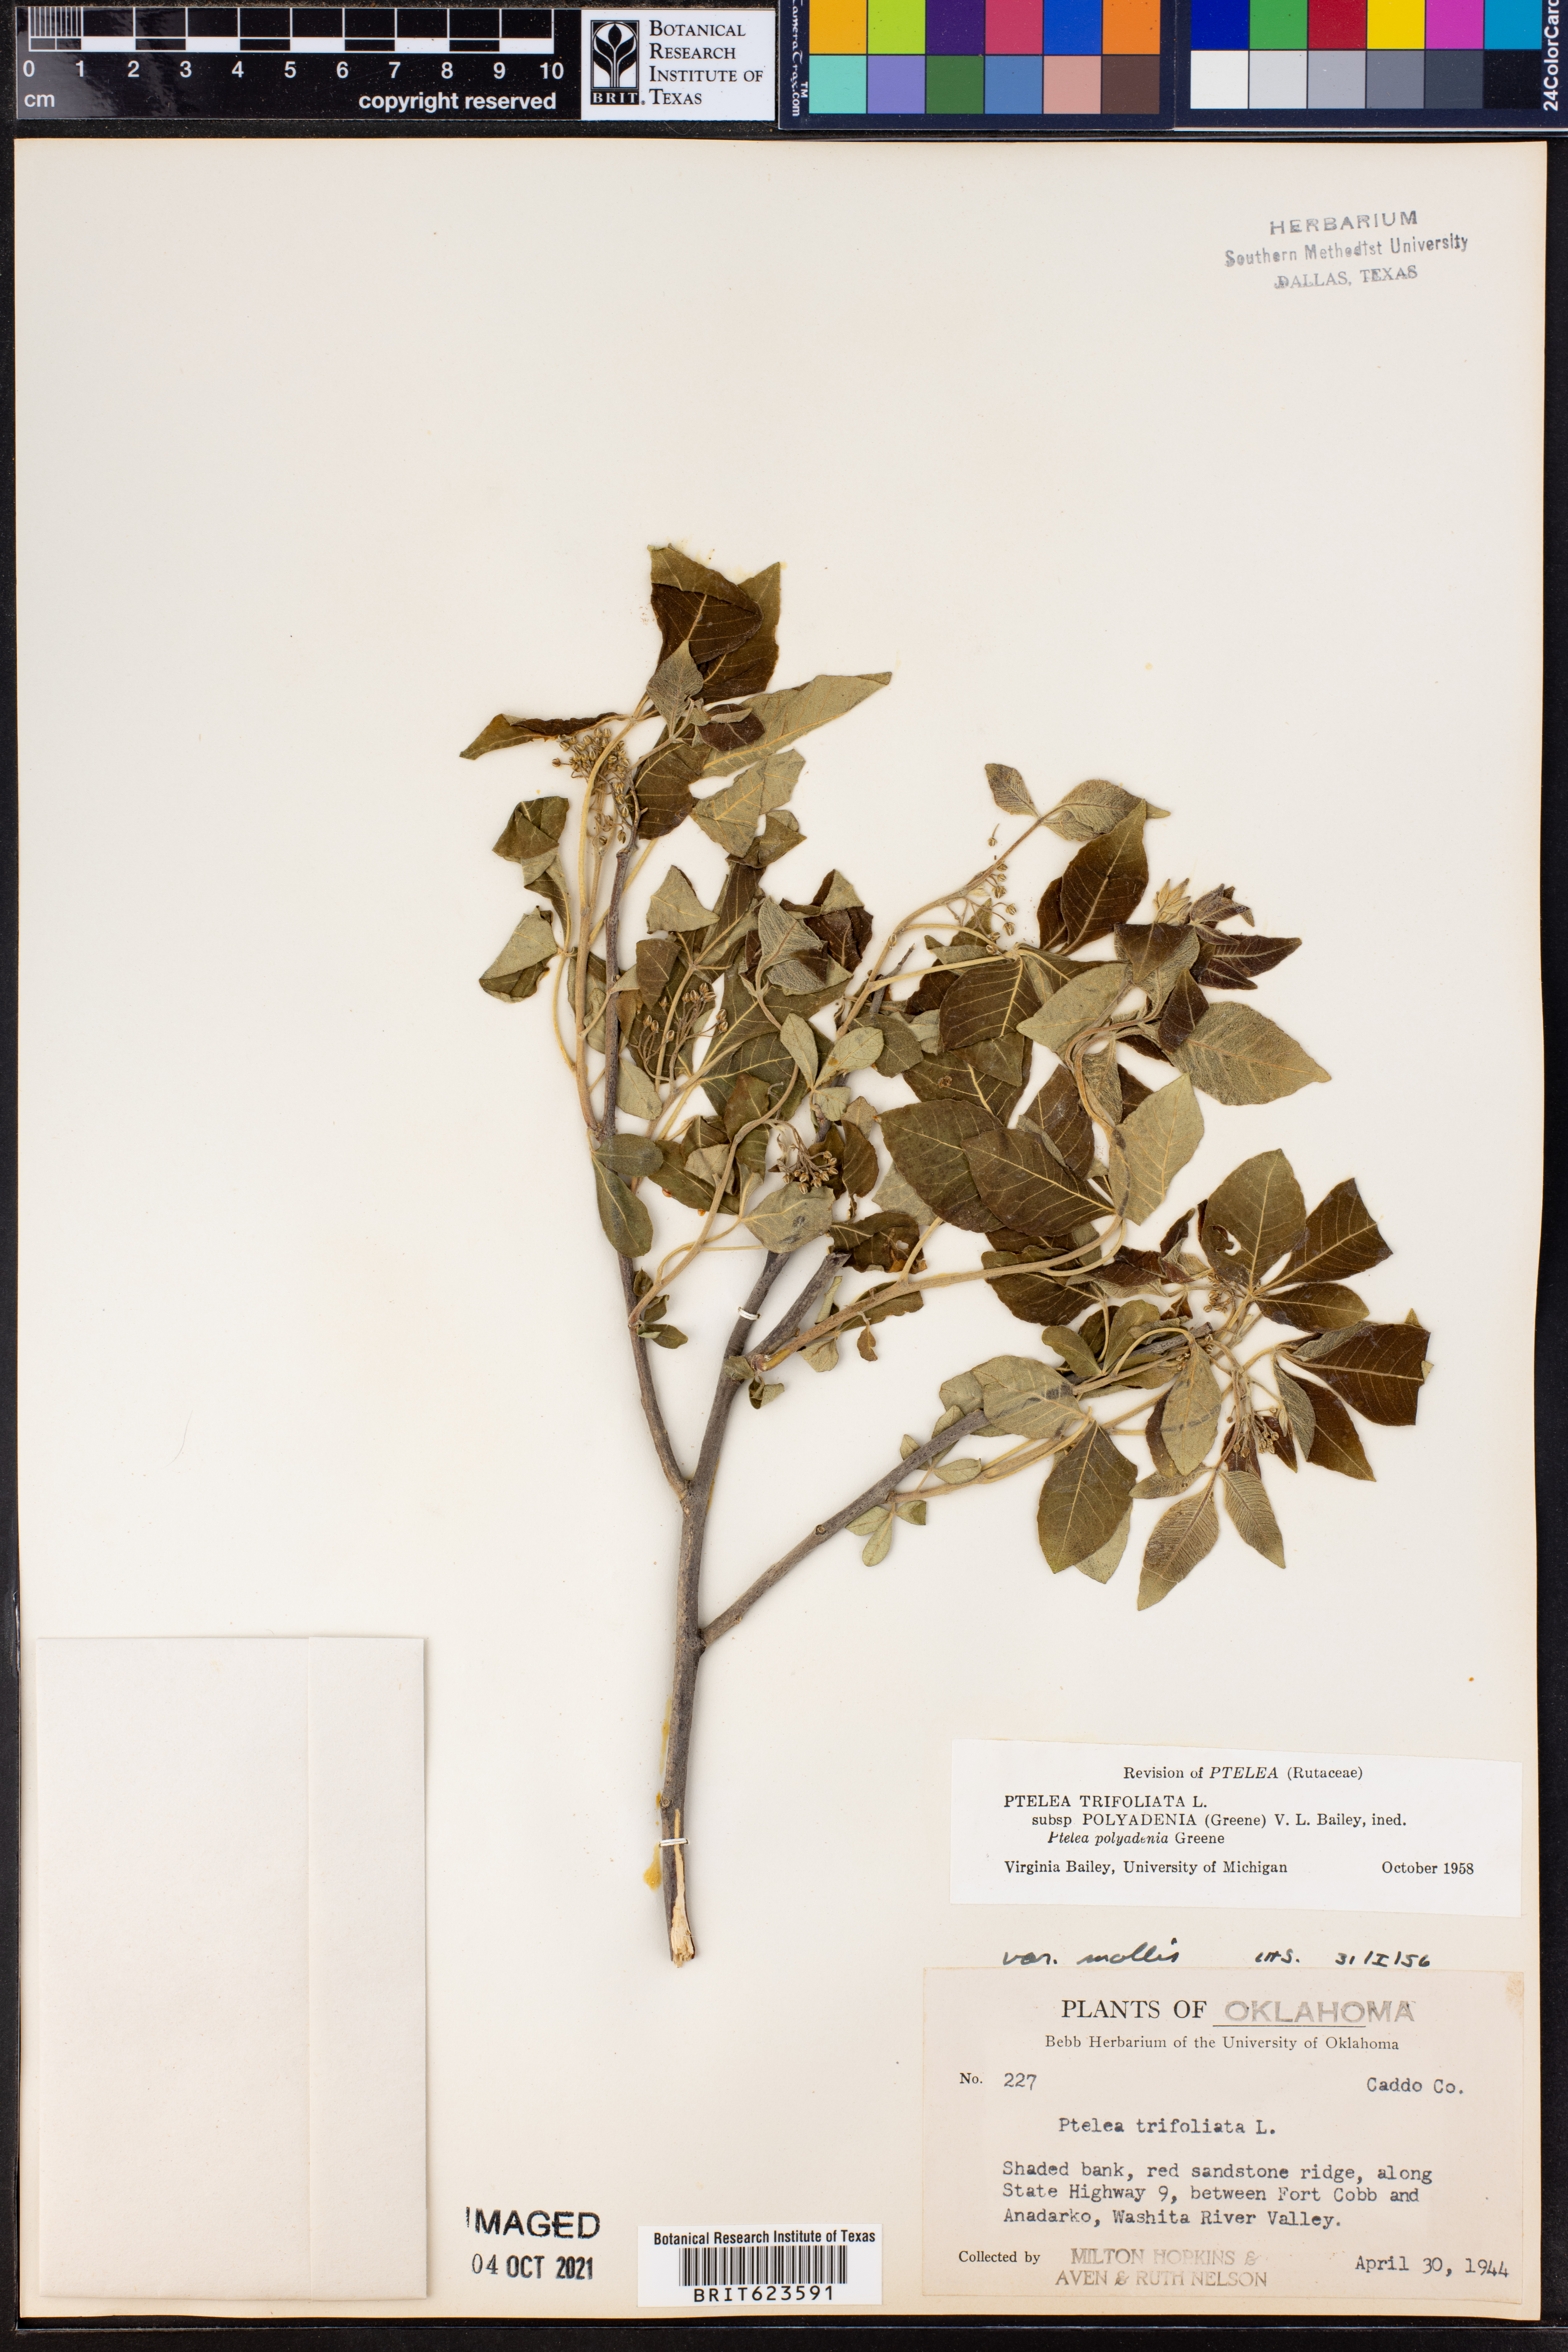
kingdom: Plantae
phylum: Tracheophyta
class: Magnoliopsida
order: Sapindales
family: Rutaceae
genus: Ptelea
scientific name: Ptelea trifoliata
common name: Common hop-tree
